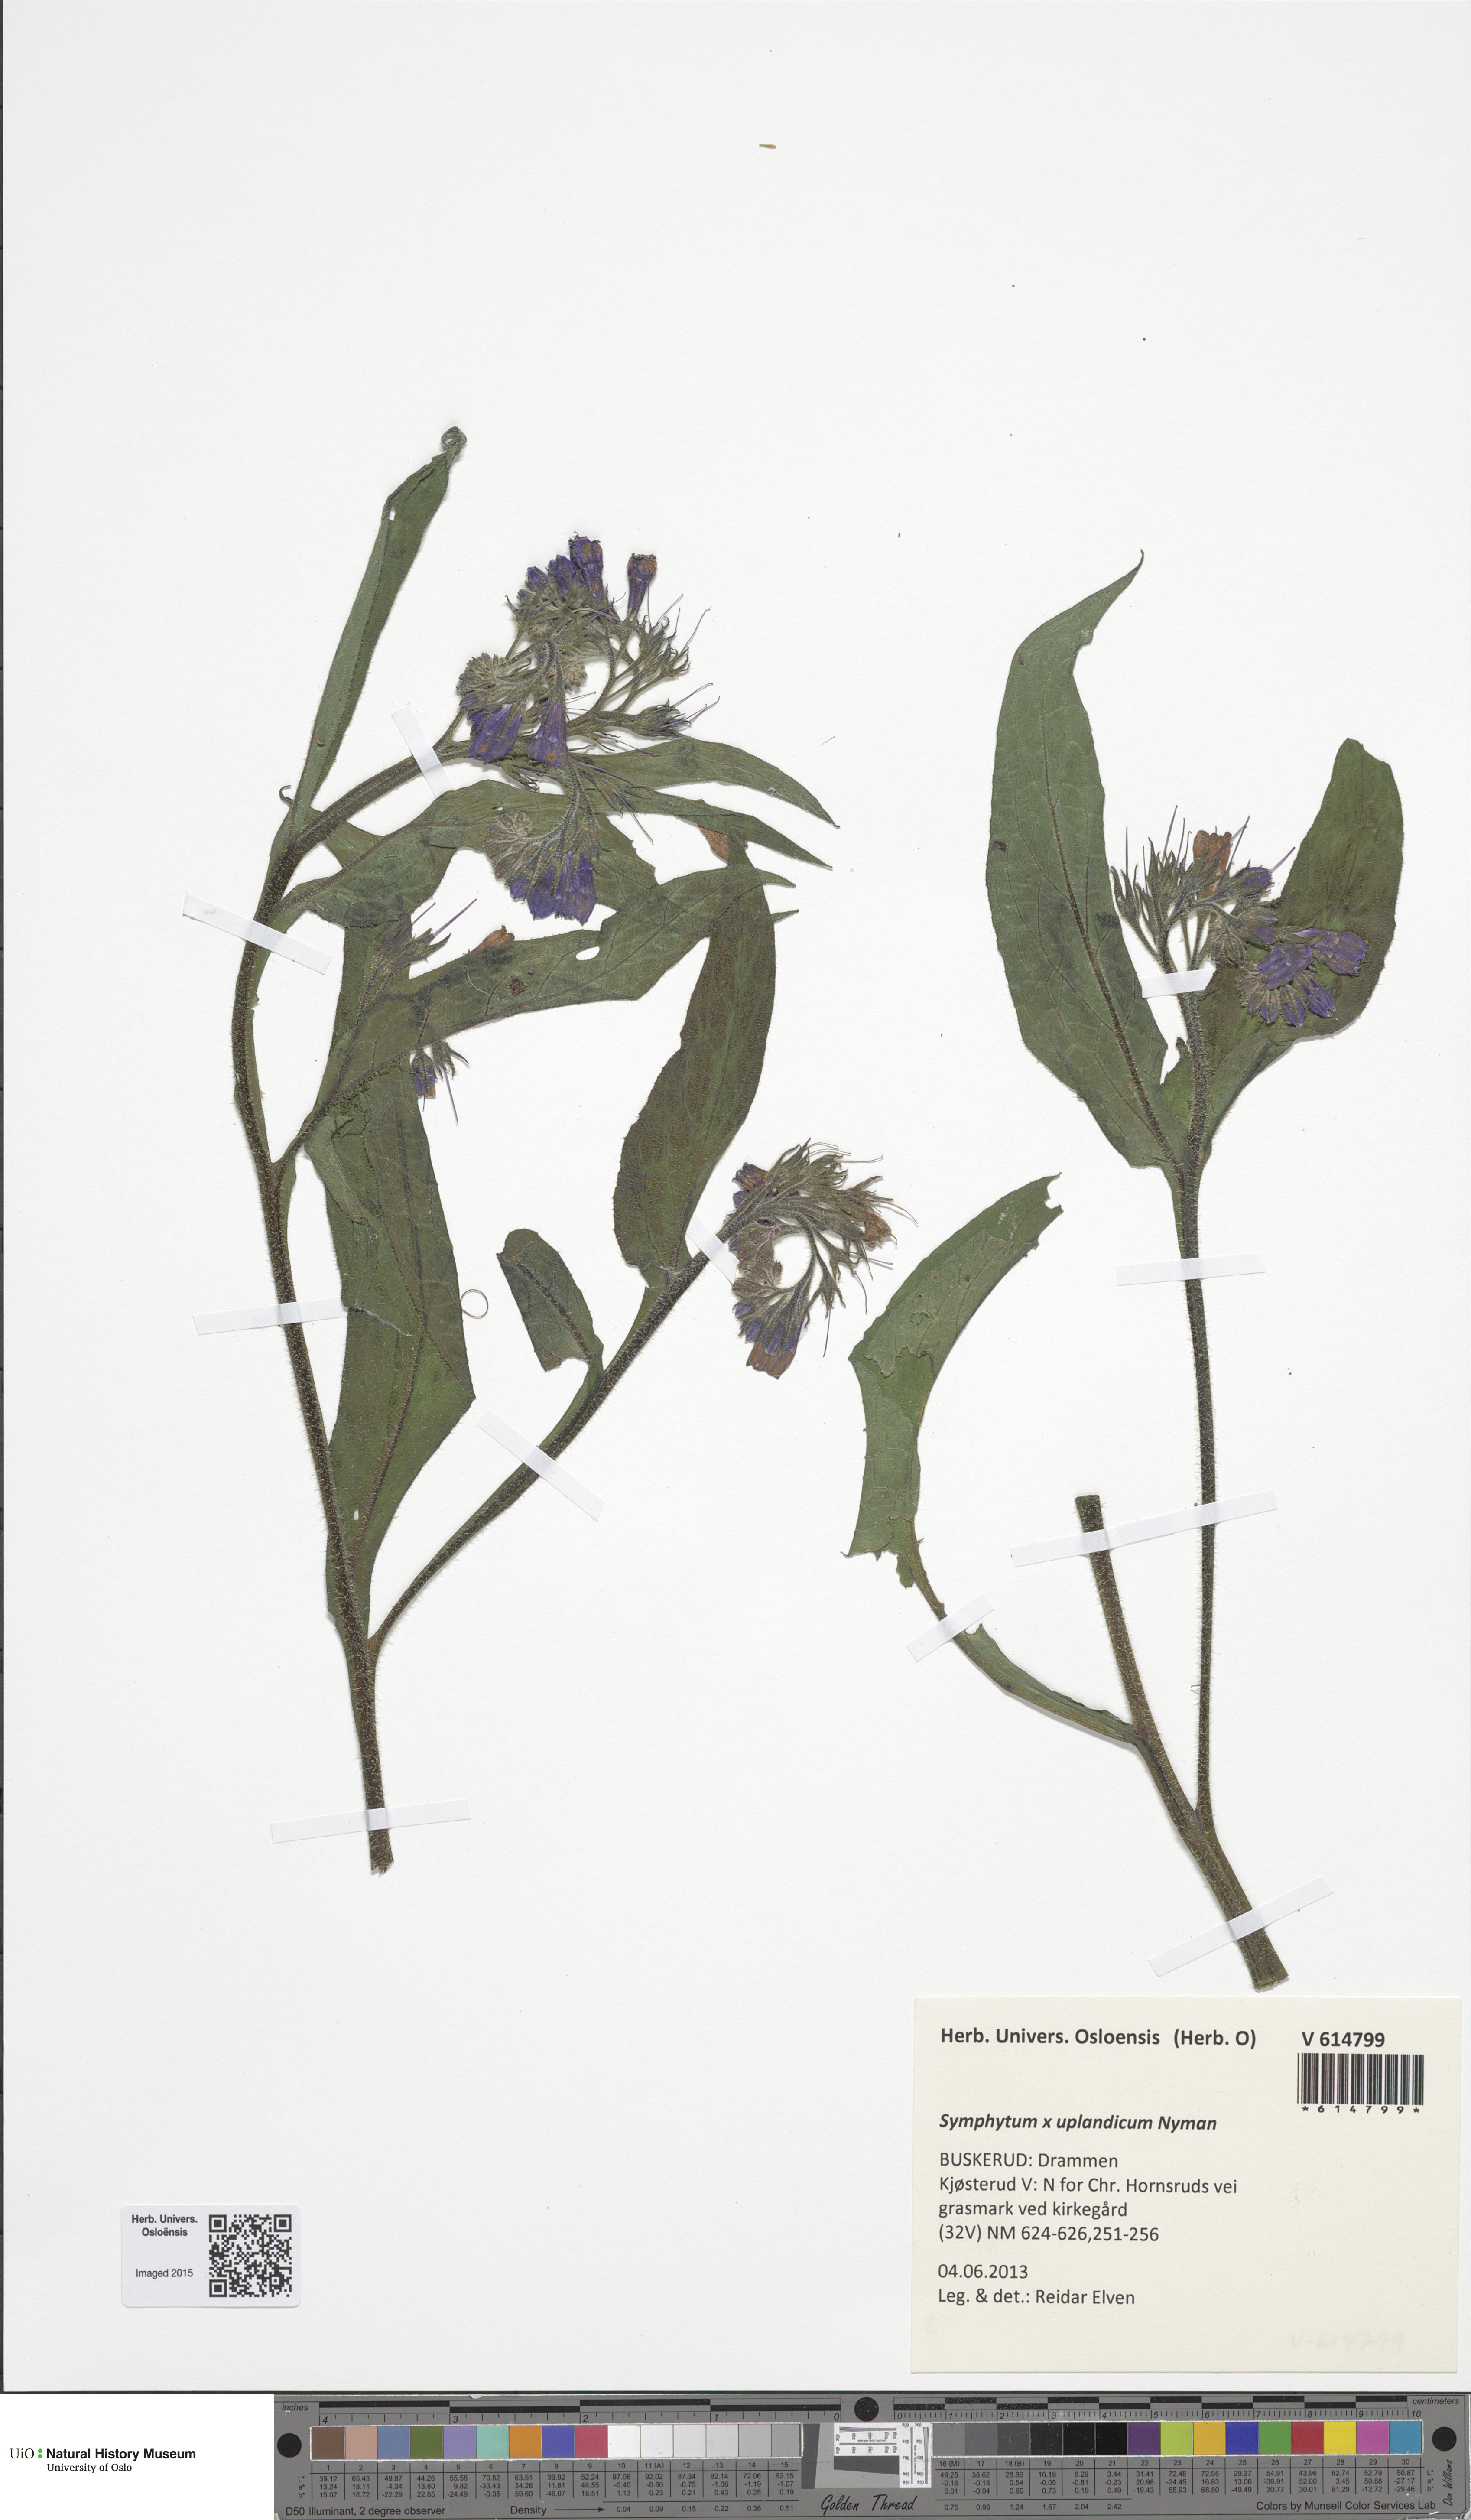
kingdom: Plantae
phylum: Tracheophyta
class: Magnoliopsida
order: Boraginales
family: Boraginaceae
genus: Symphytum
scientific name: Symphytum officinale
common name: Common comfrey
